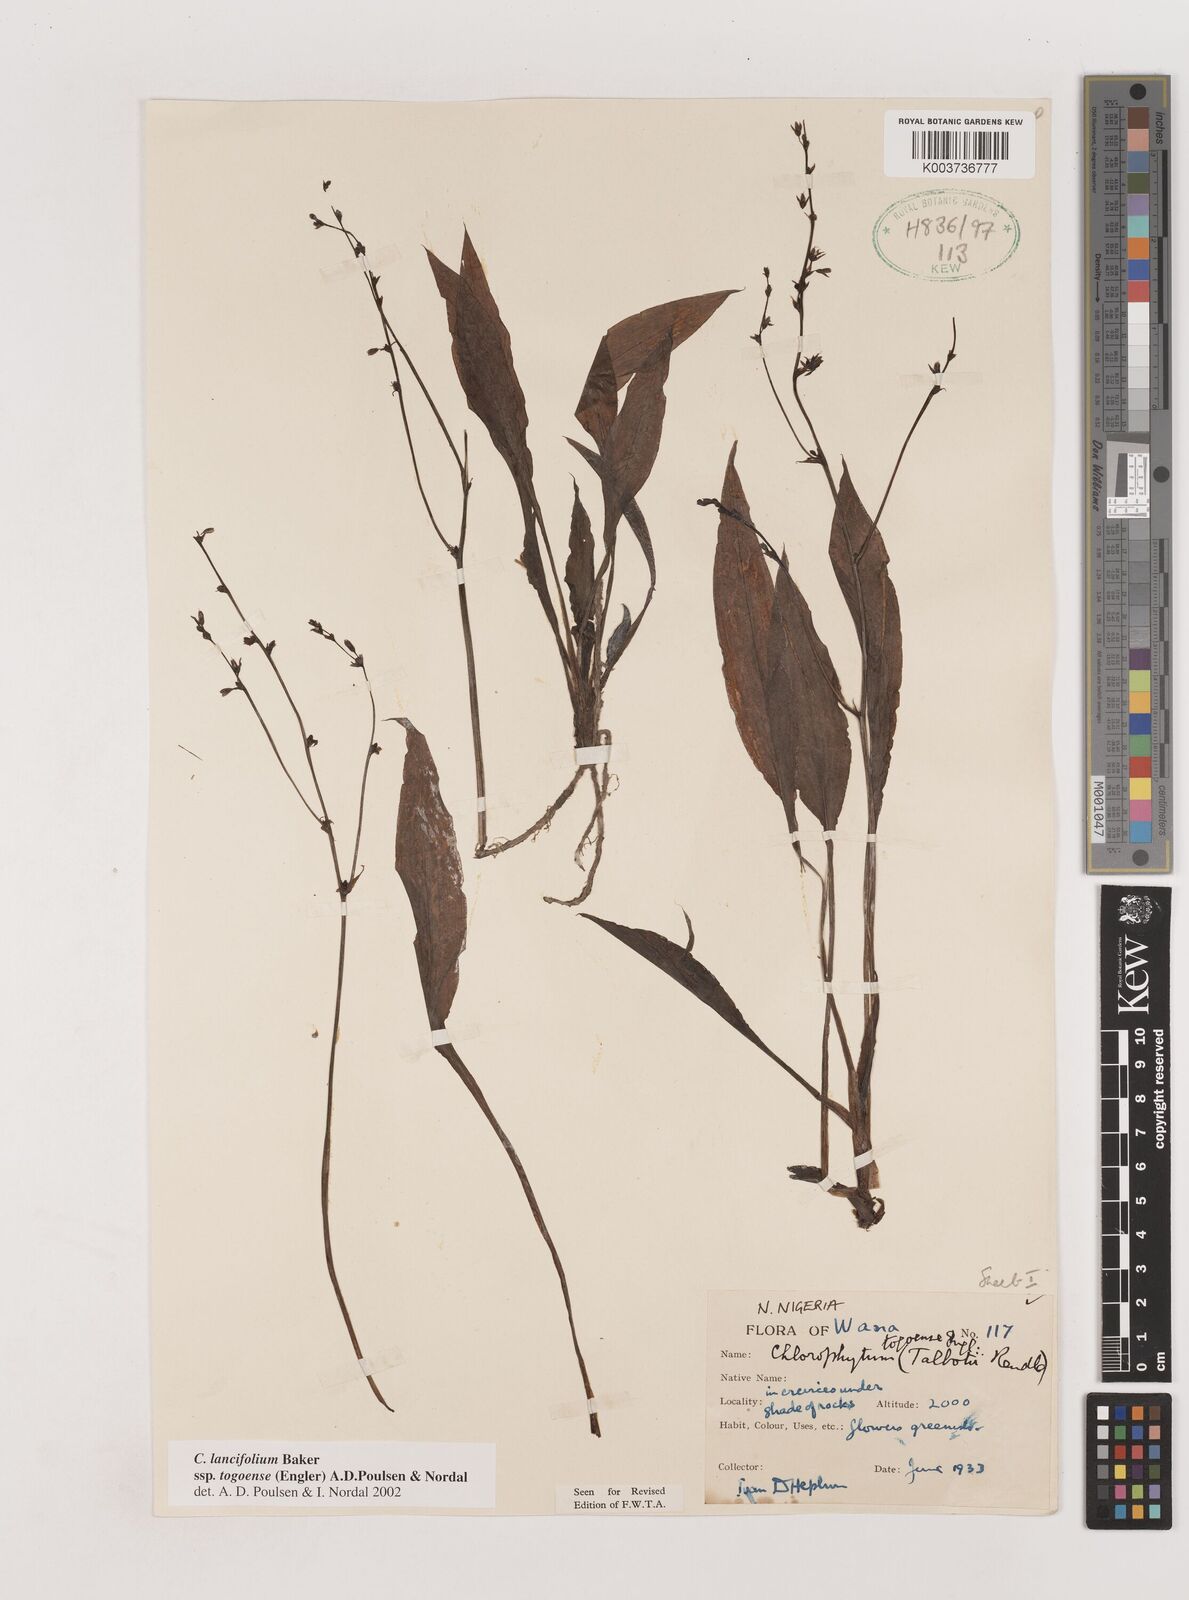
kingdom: Plantae
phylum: Tracheophyta
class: Liliopsida
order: Asparagales
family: Asparagaceae
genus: Chlorophytum
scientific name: Chlorophytum lancifolium
